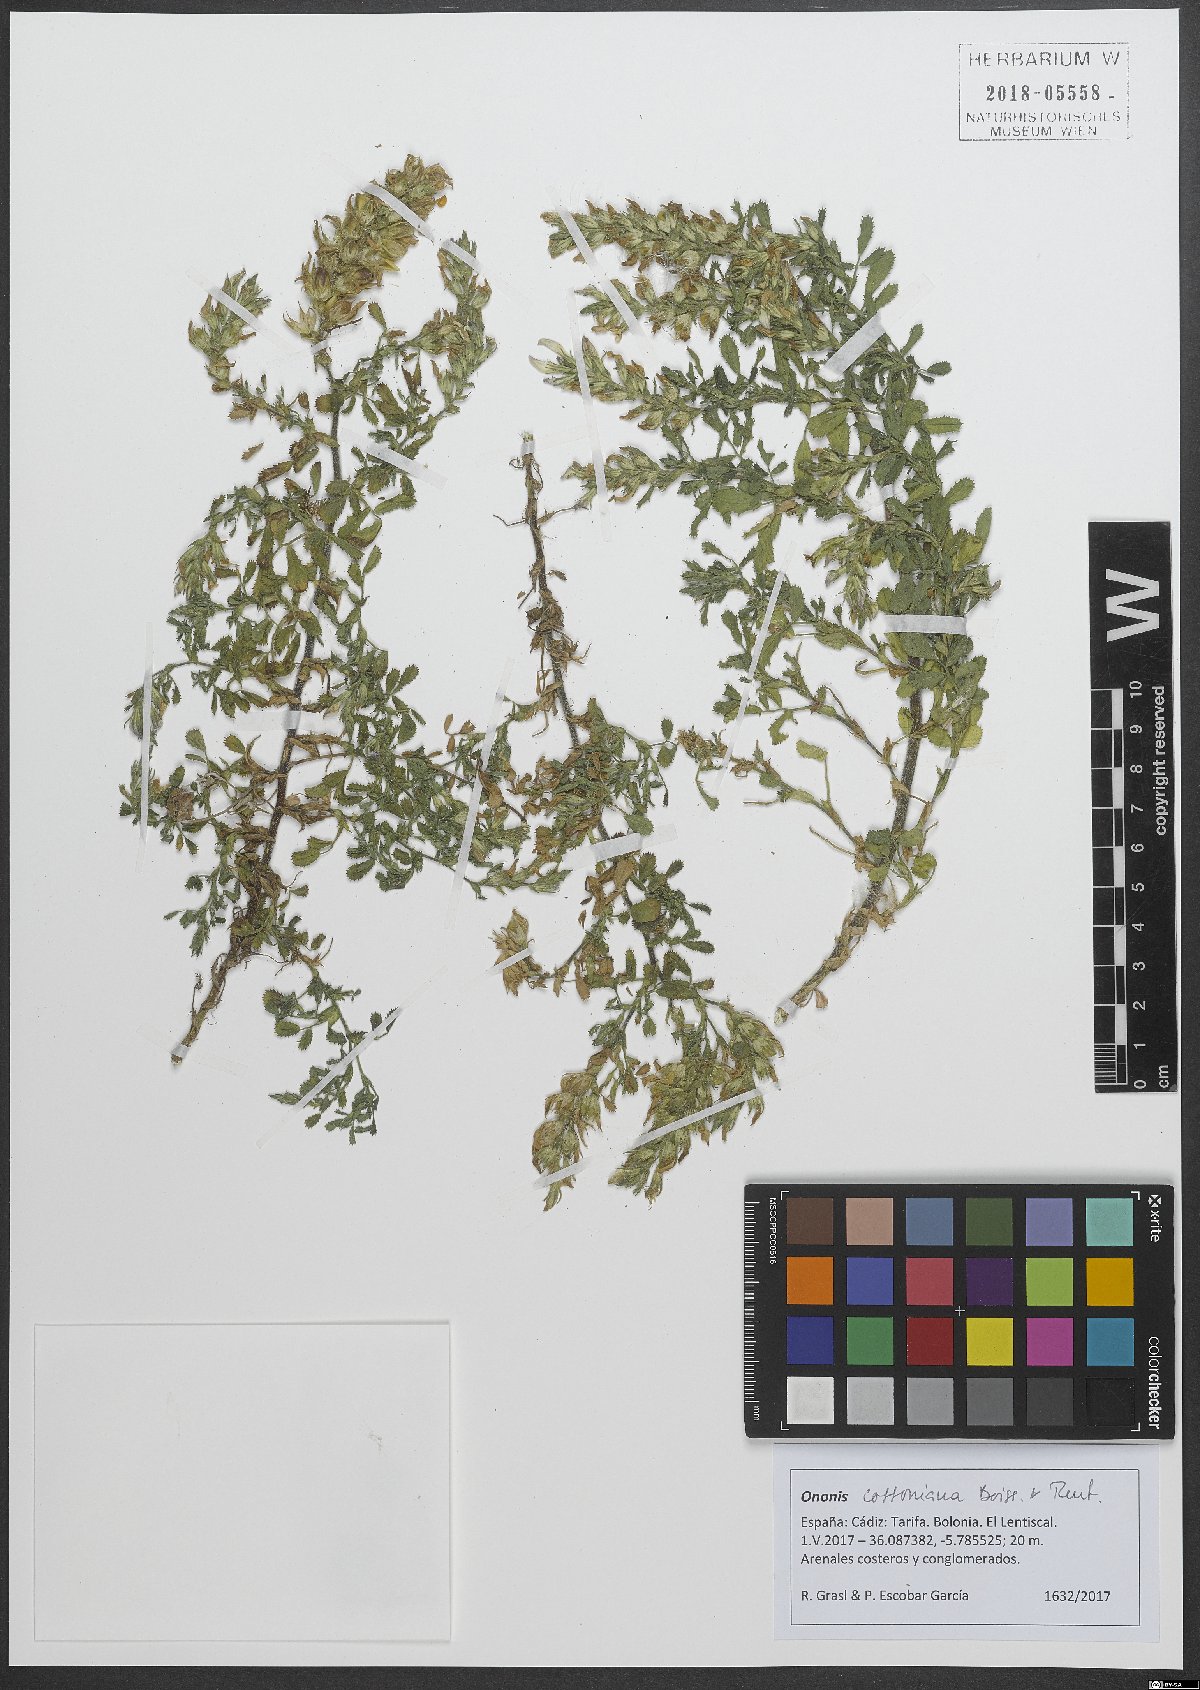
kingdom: Plantae
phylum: Tracheophyta
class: Magnoliopsida
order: Fabales
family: Fabaceae
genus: Ononis
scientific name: Ononis cossoniana
